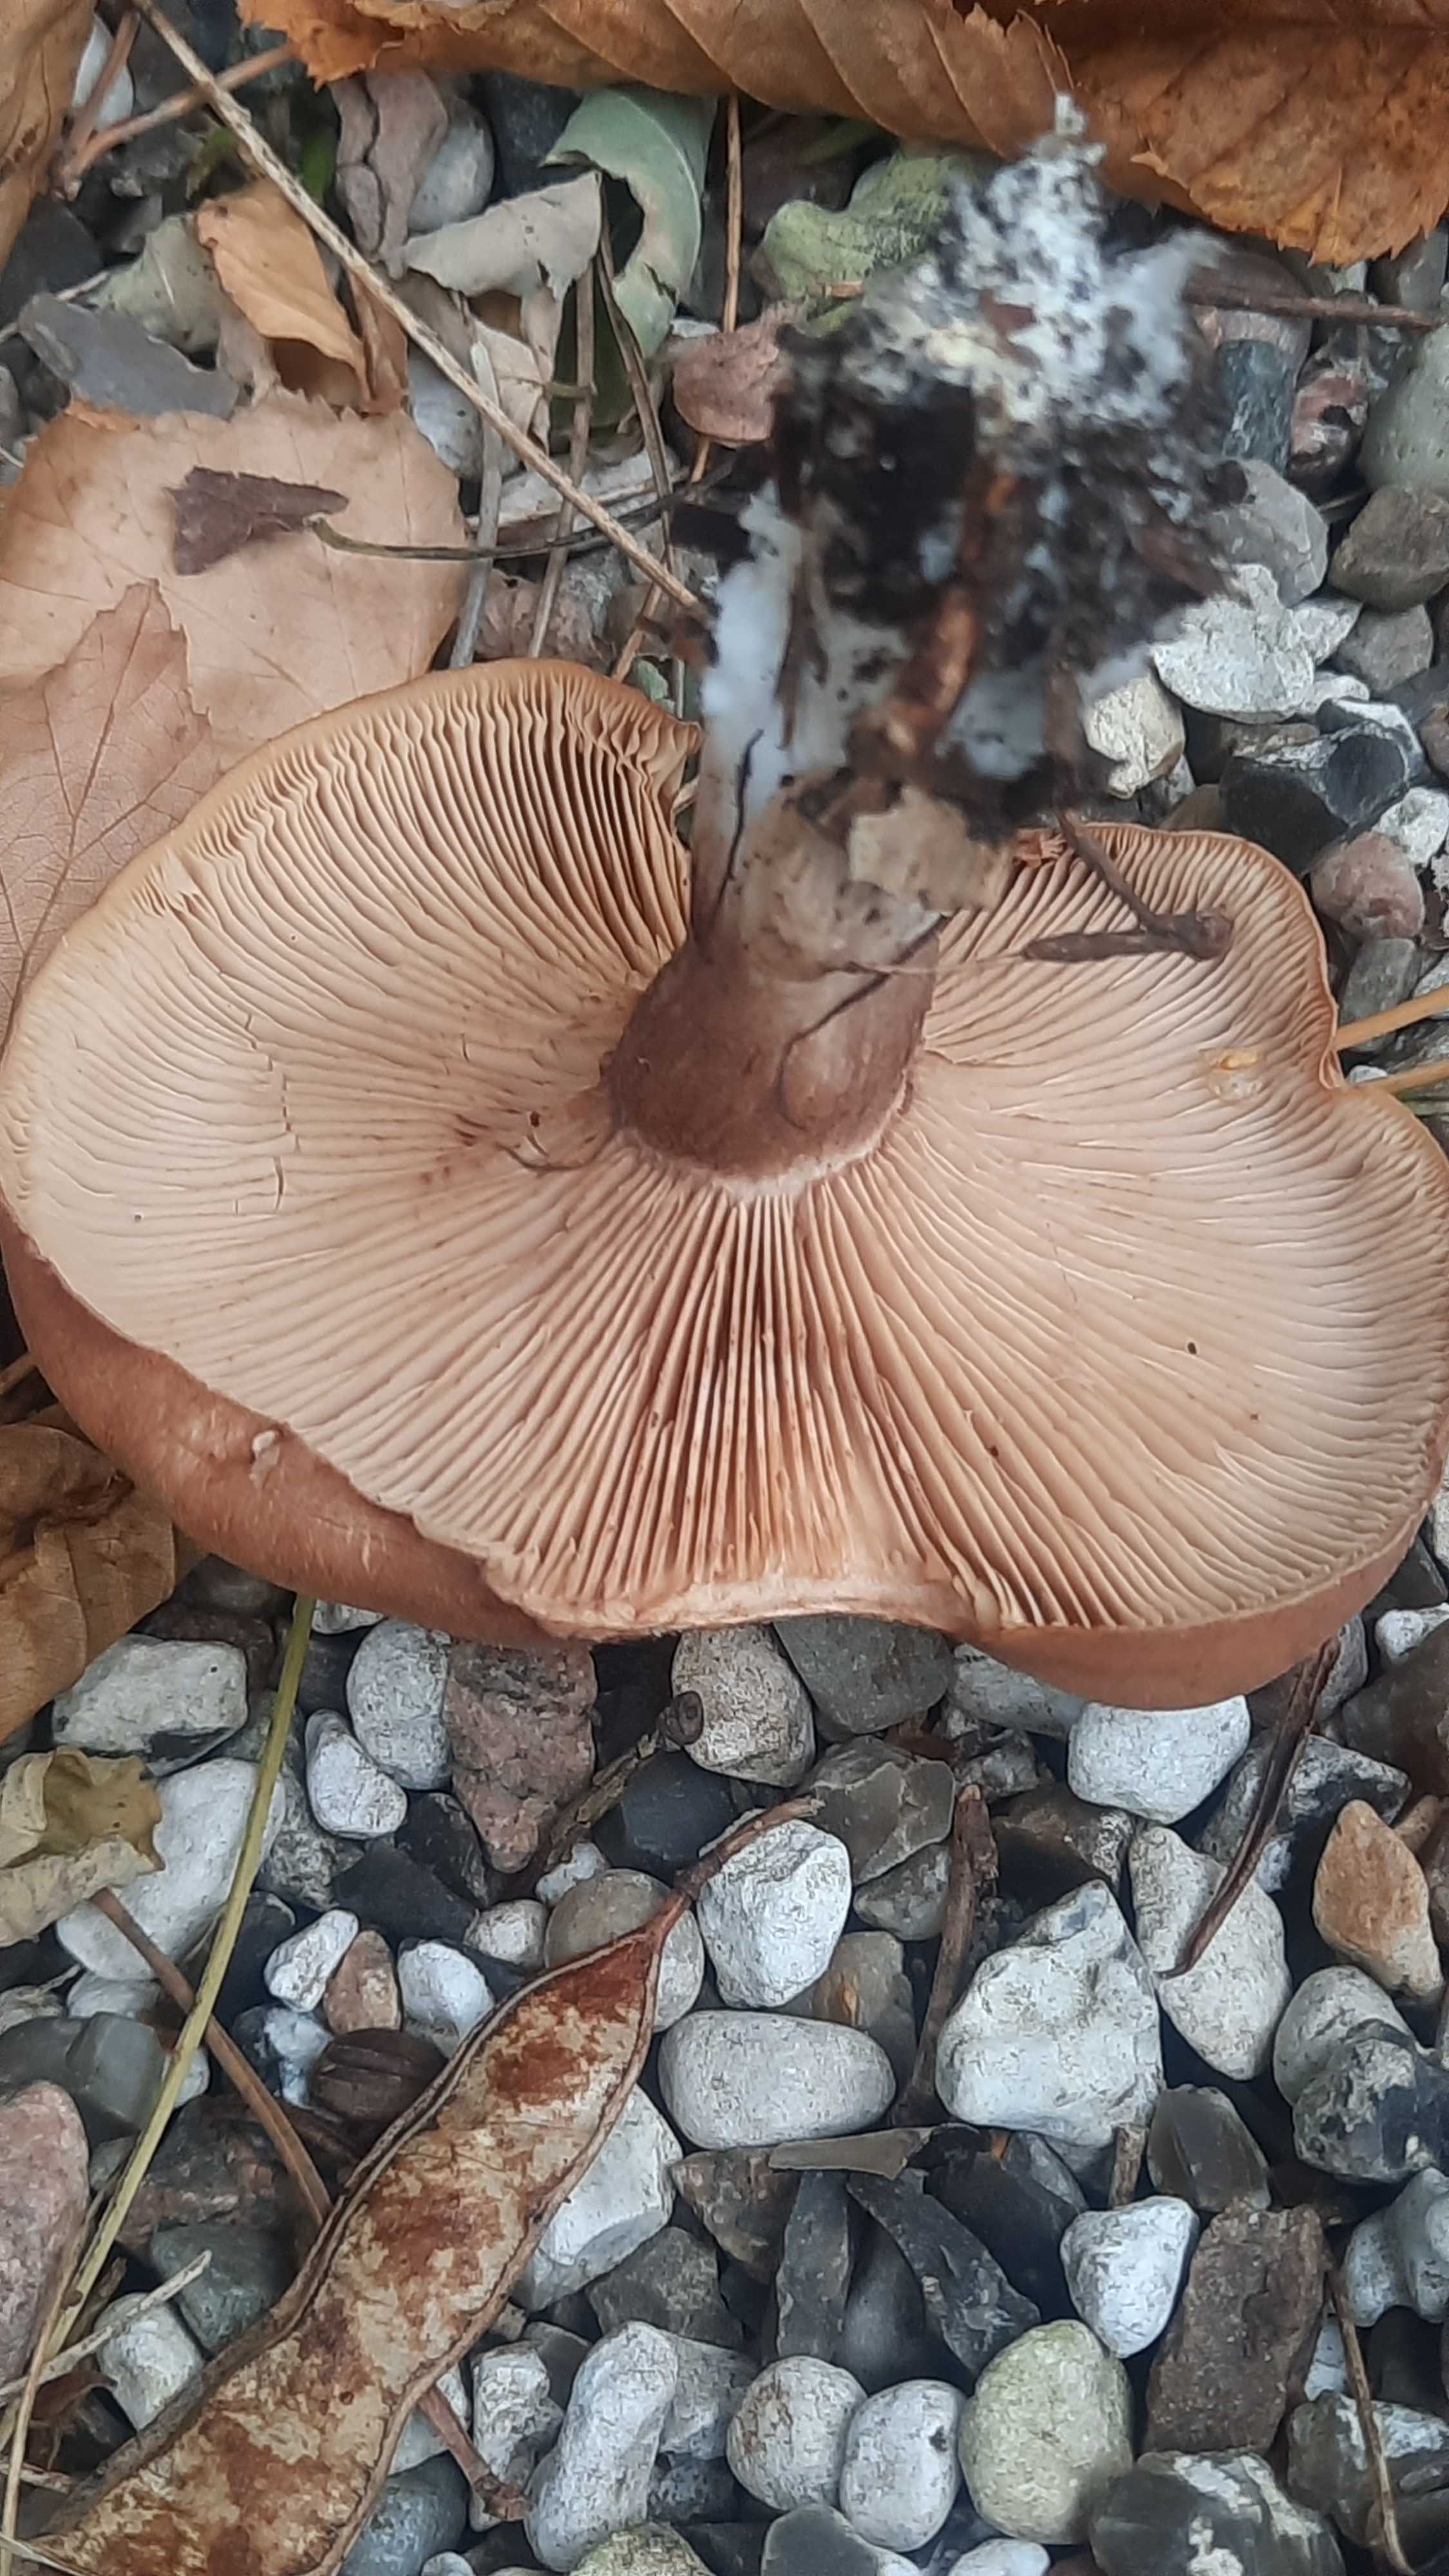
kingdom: Fungi
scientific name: Fungi
